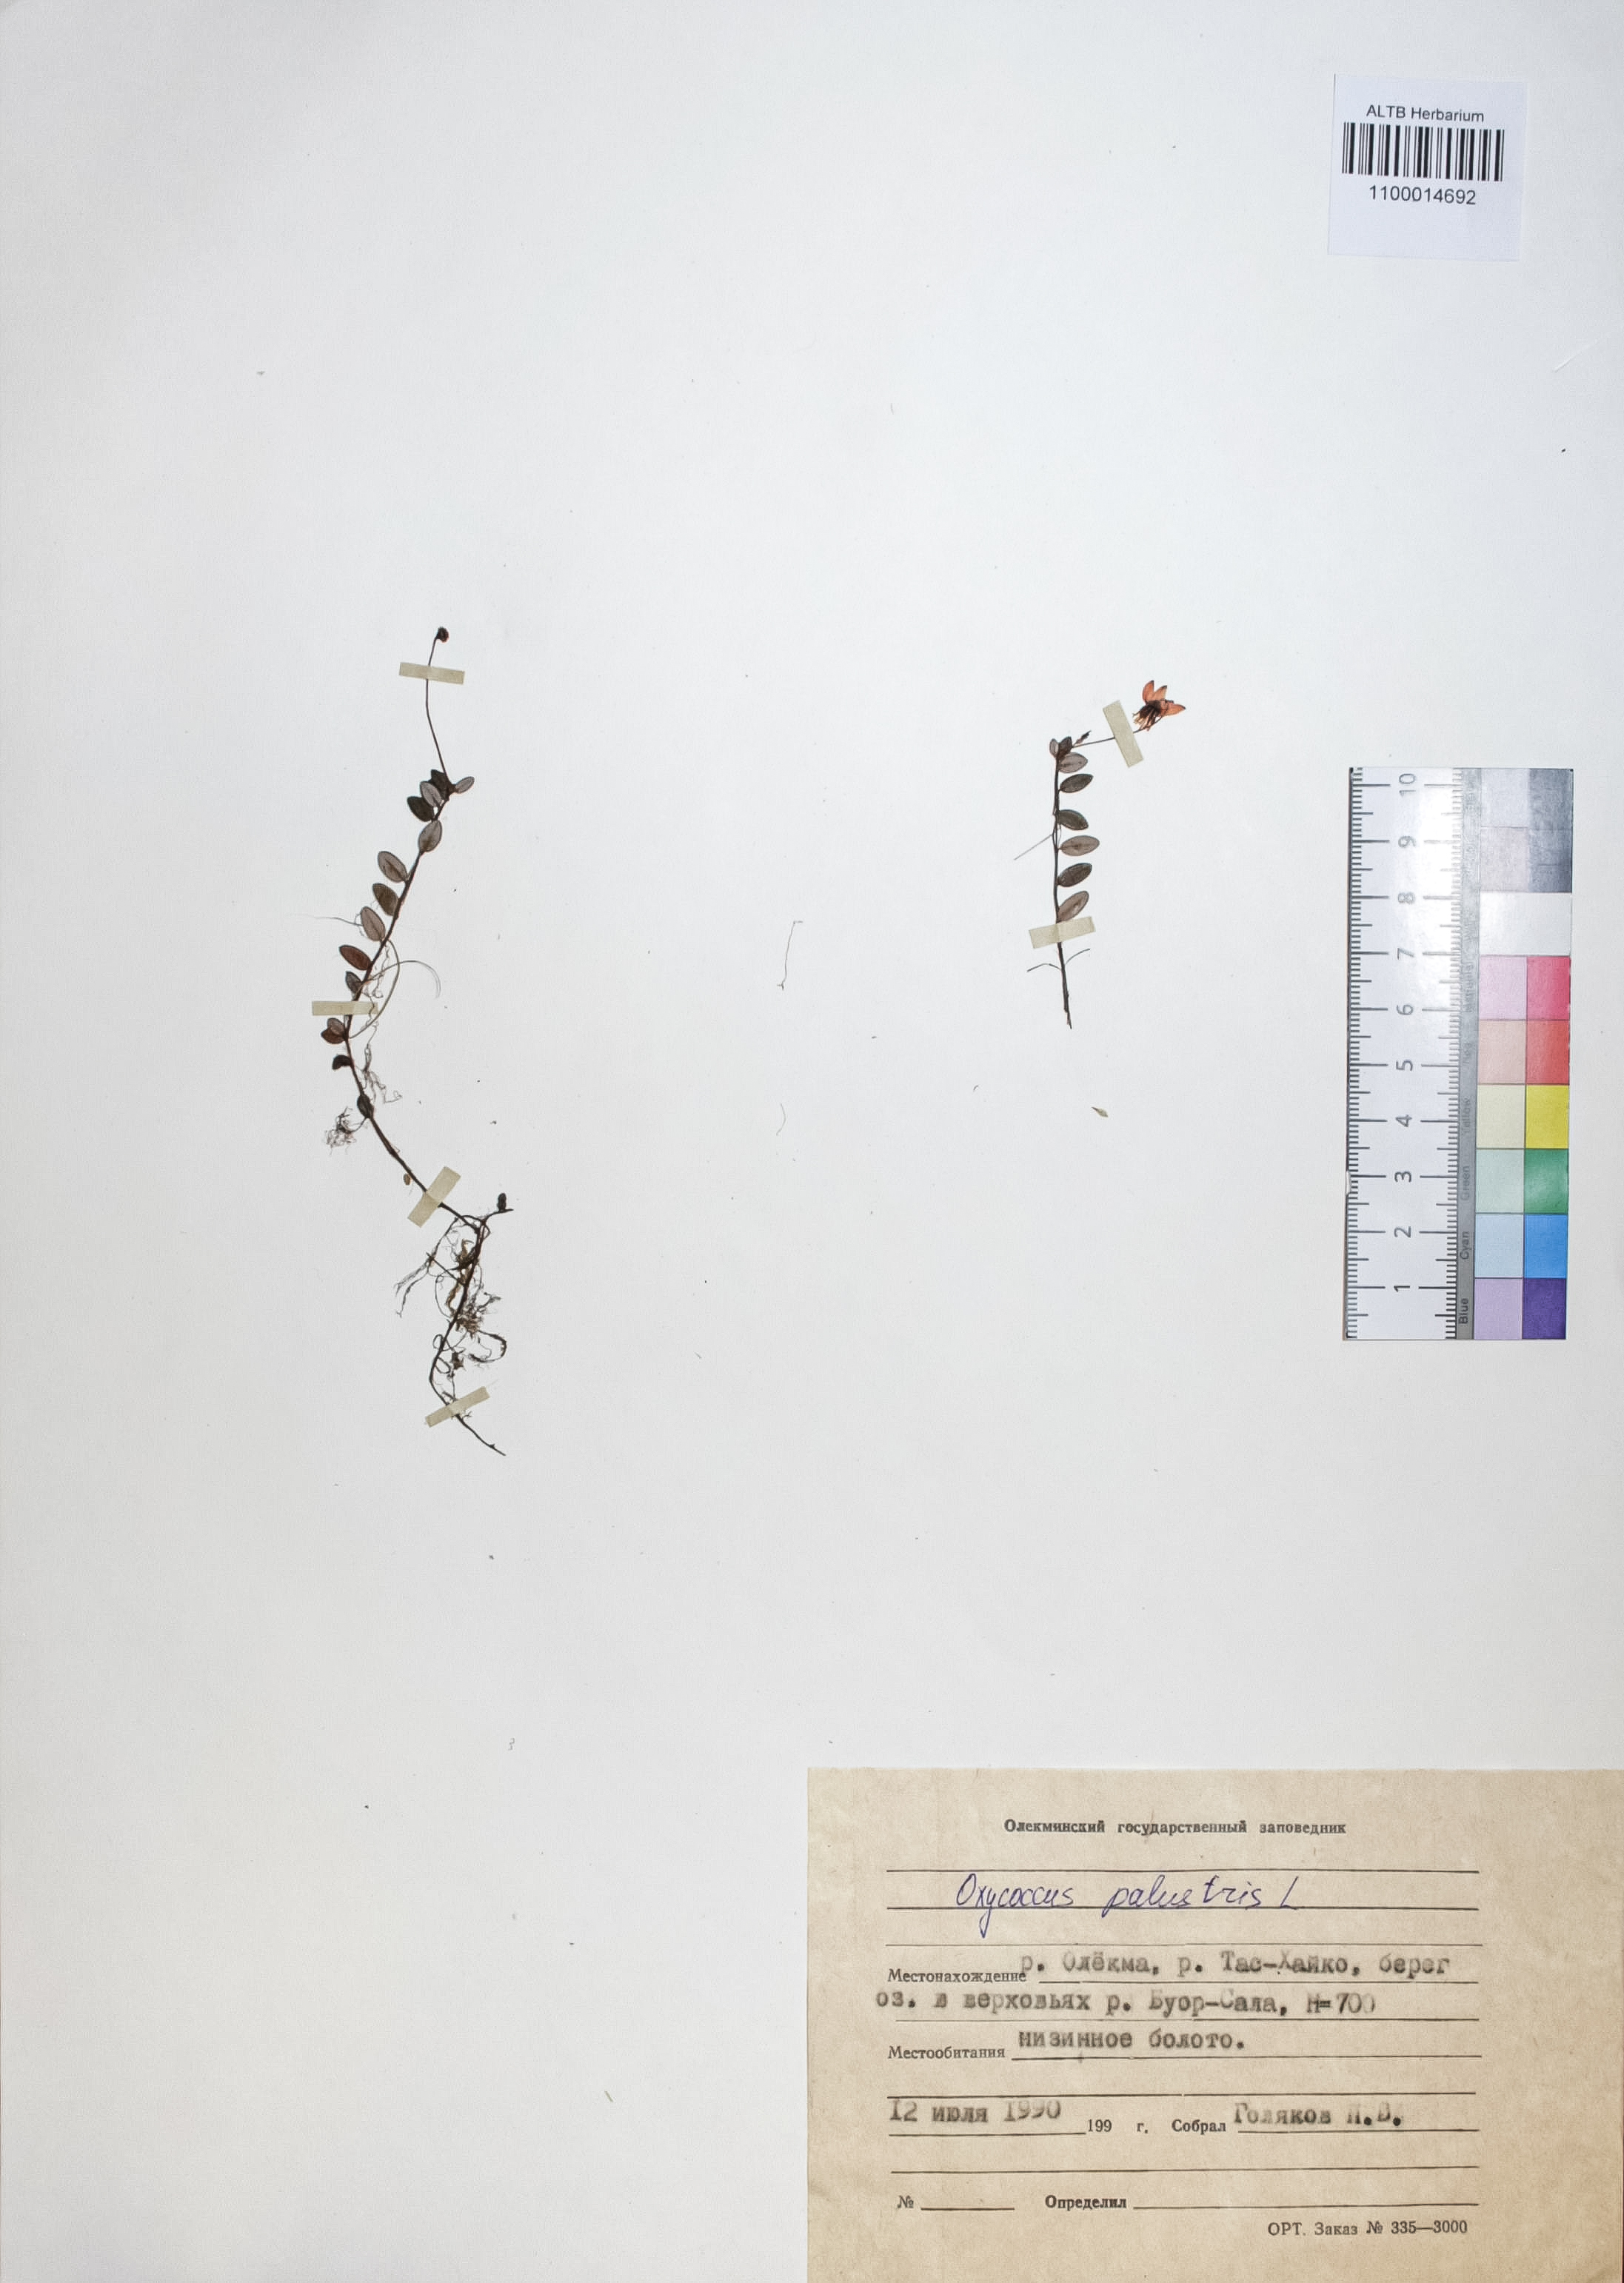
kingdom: Plantae
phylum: Tracheophyta
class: Magnoliopsida
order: Ericales
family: Ericaceae
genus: Vaccinium
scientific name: Vaccinium oxycoccos
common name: Cranberry
